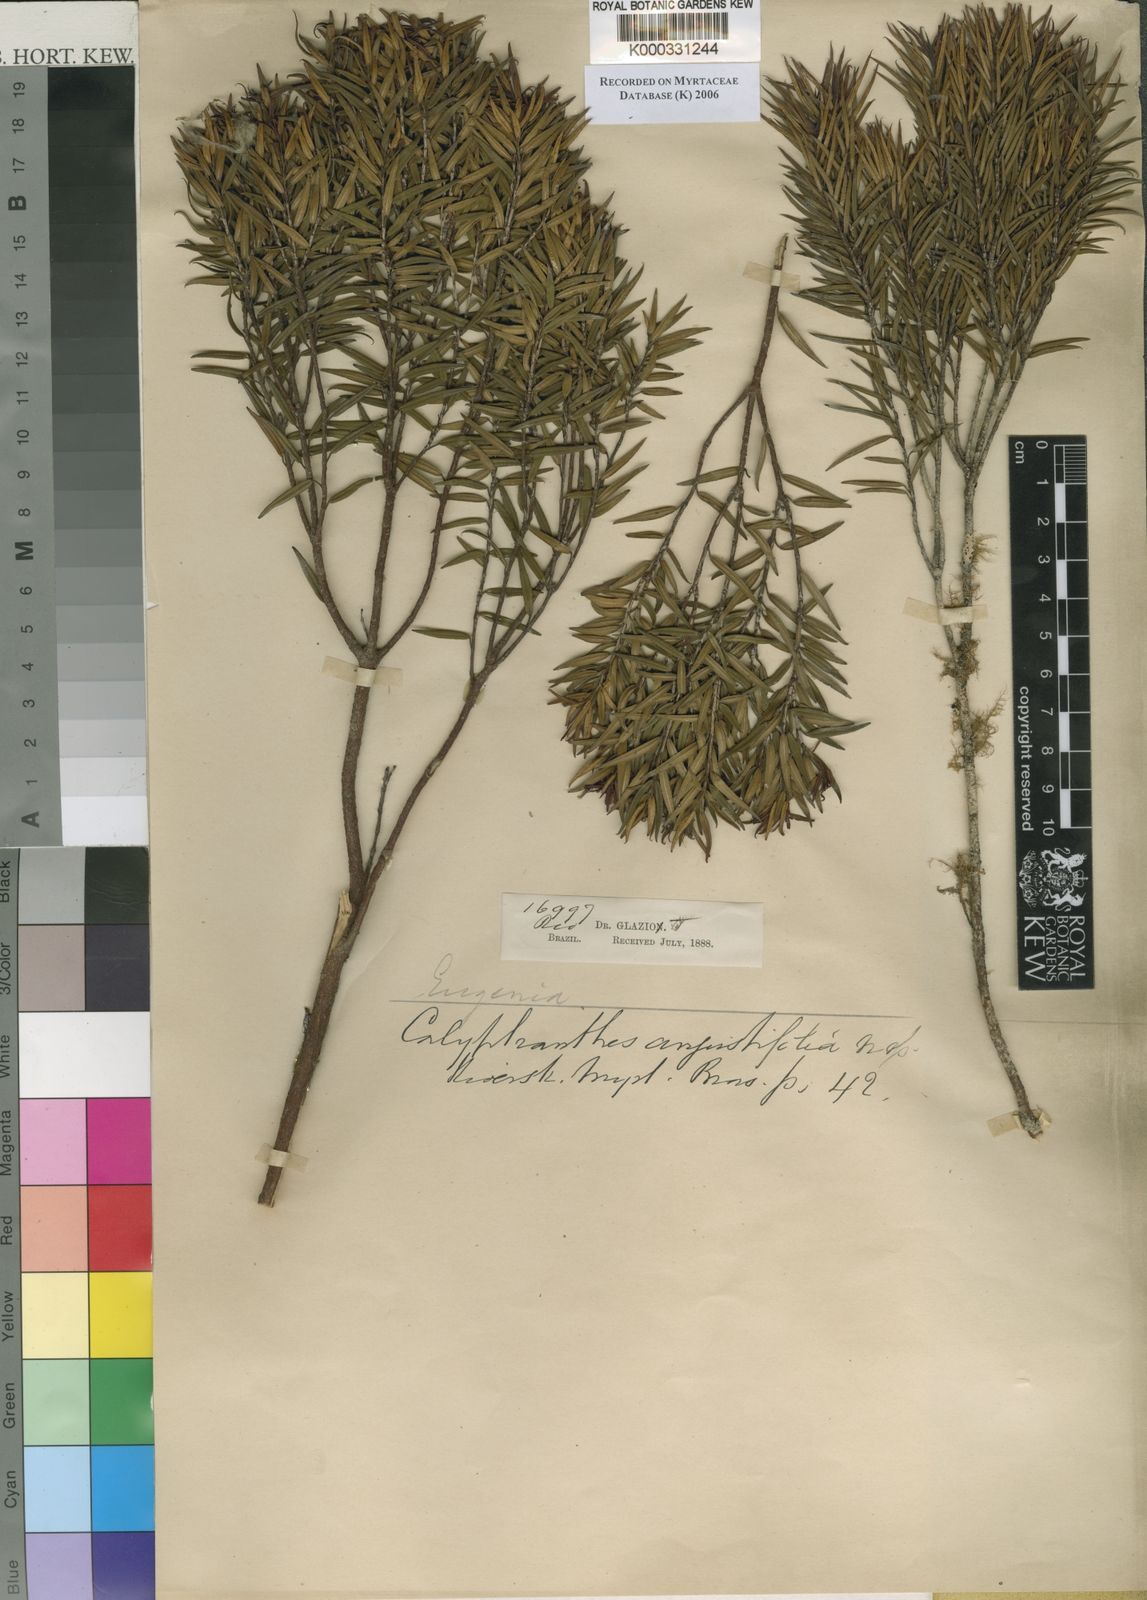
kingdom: Plantae
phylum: Tracheophyta
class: Magnoliopsida
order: Myrtales
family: Myrtaceae
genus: Myrcia
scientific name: Myrcia uncinata
